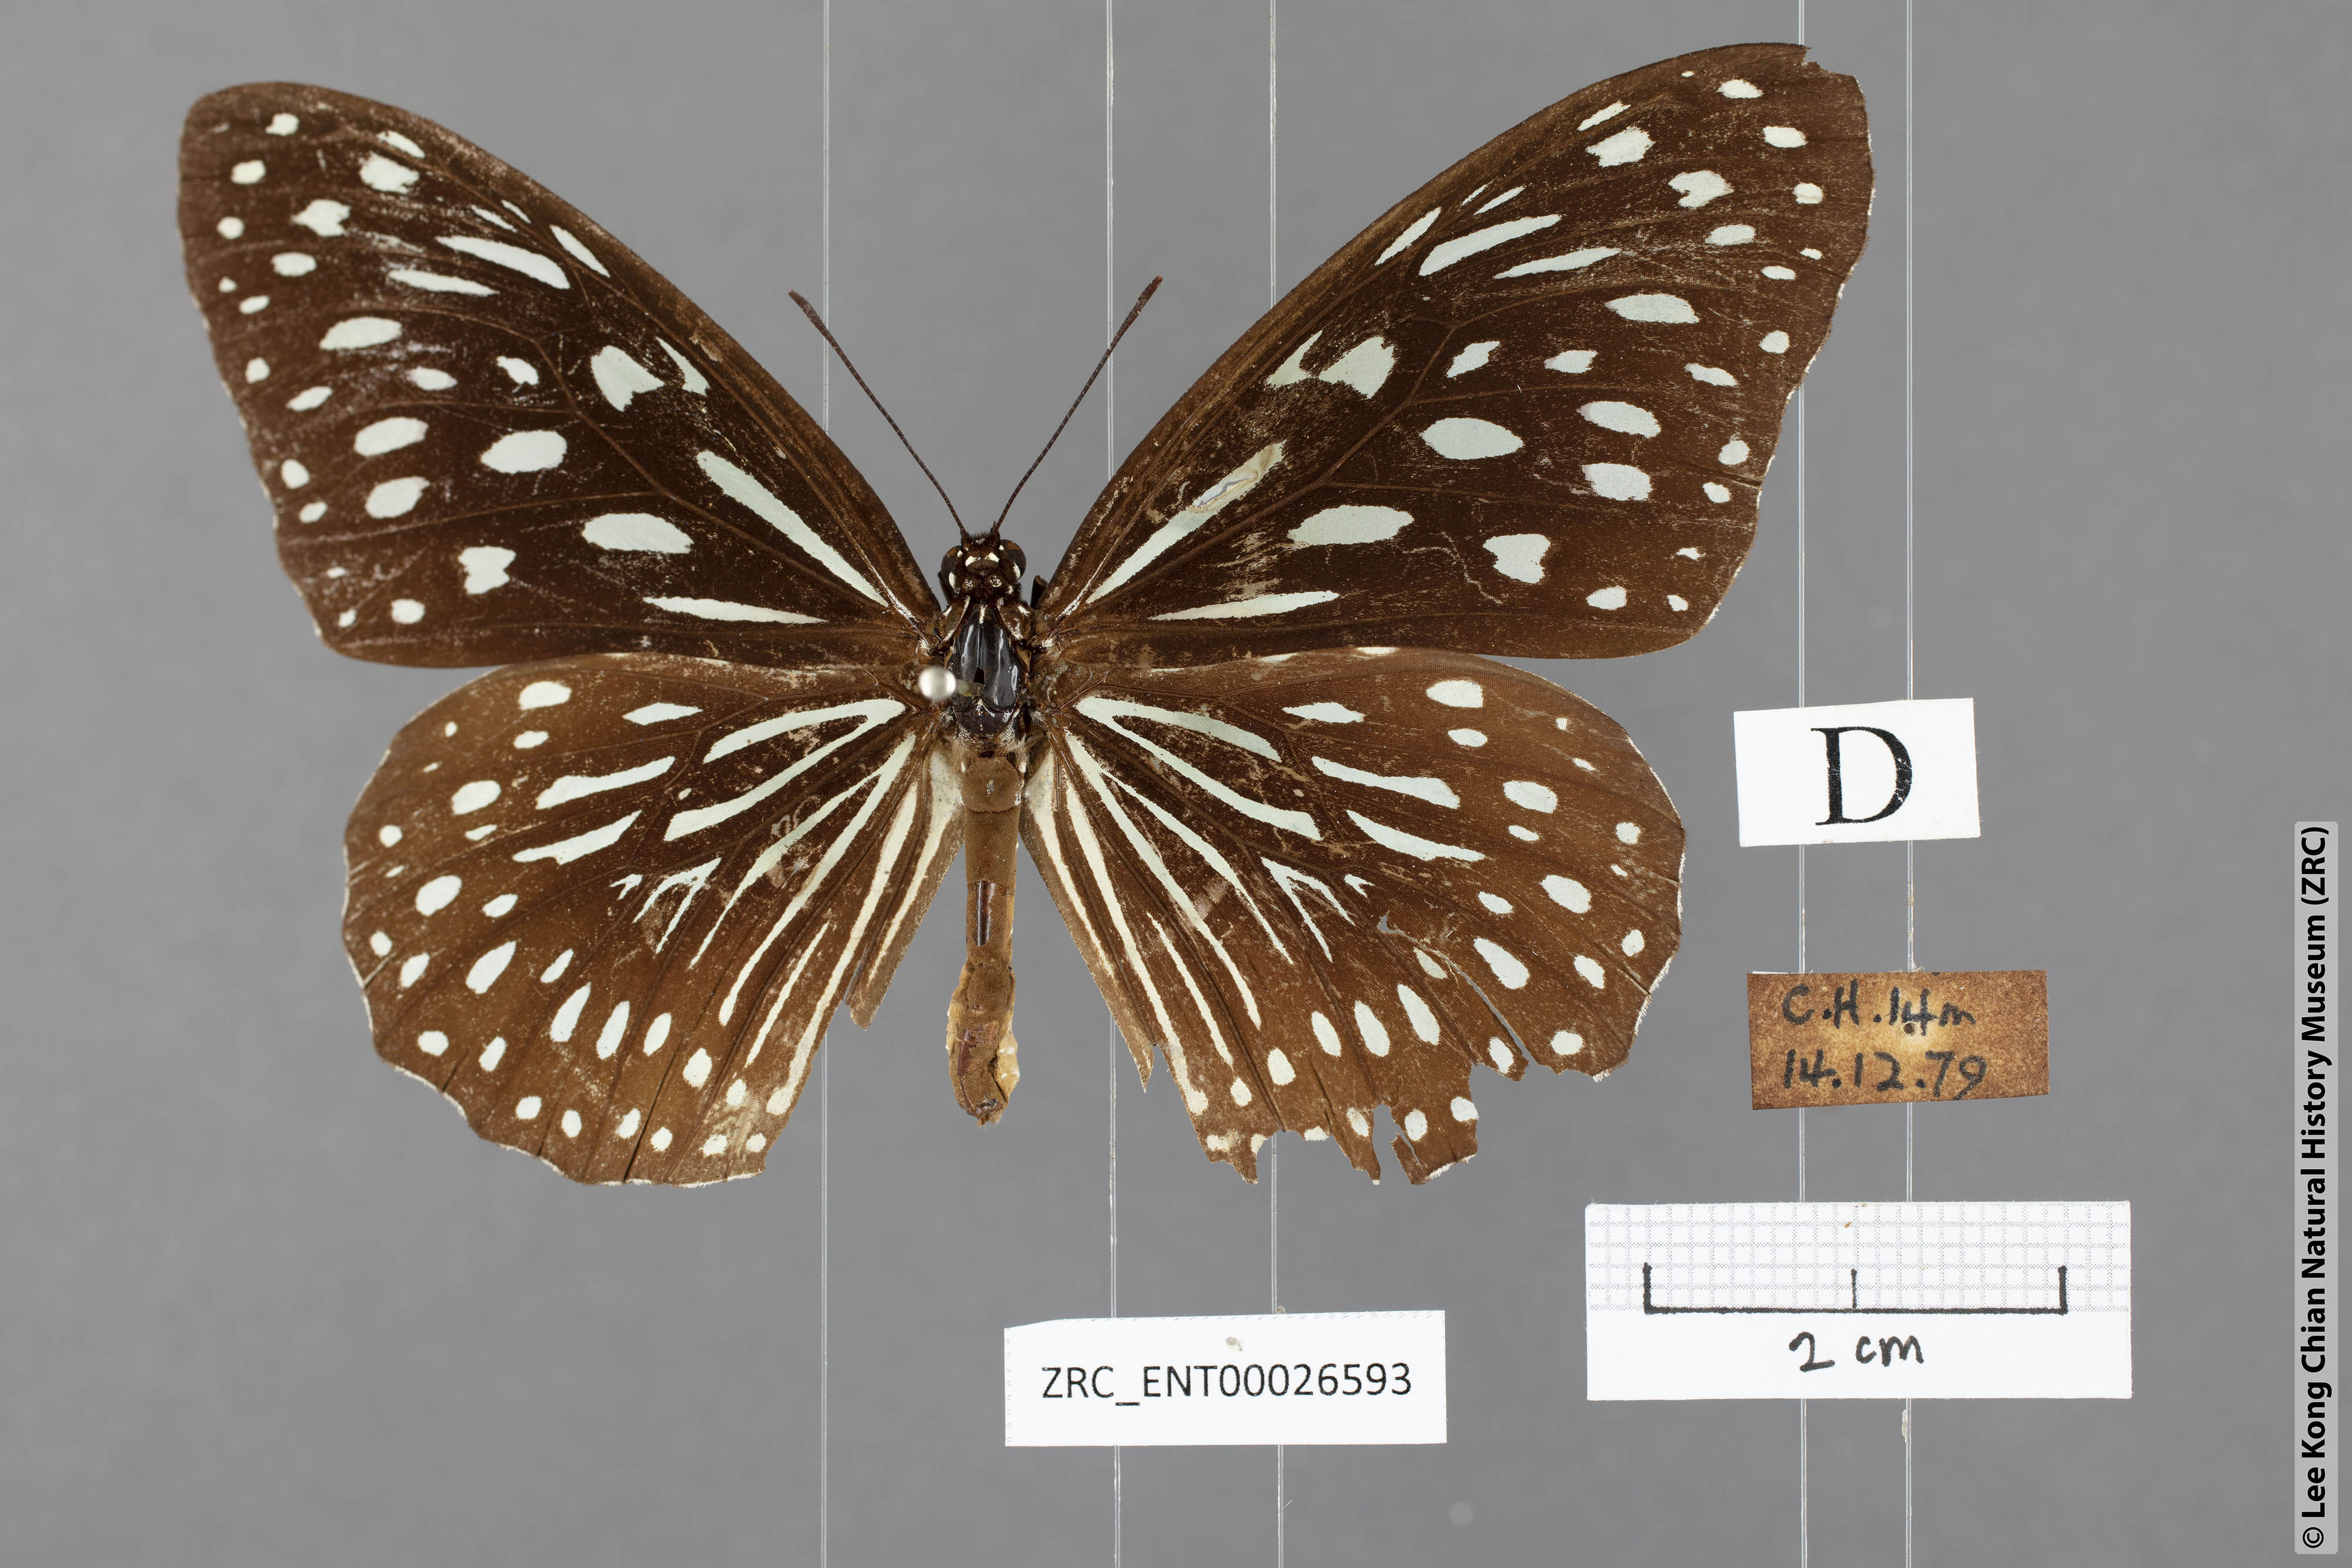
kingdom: Animalia
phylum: Arthropoda
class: Insecta
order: Lepidoptera
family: Nymphalidae
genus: Tirumala
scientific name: Tirumala septentrionis
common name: Dark blue tiger butterfly
